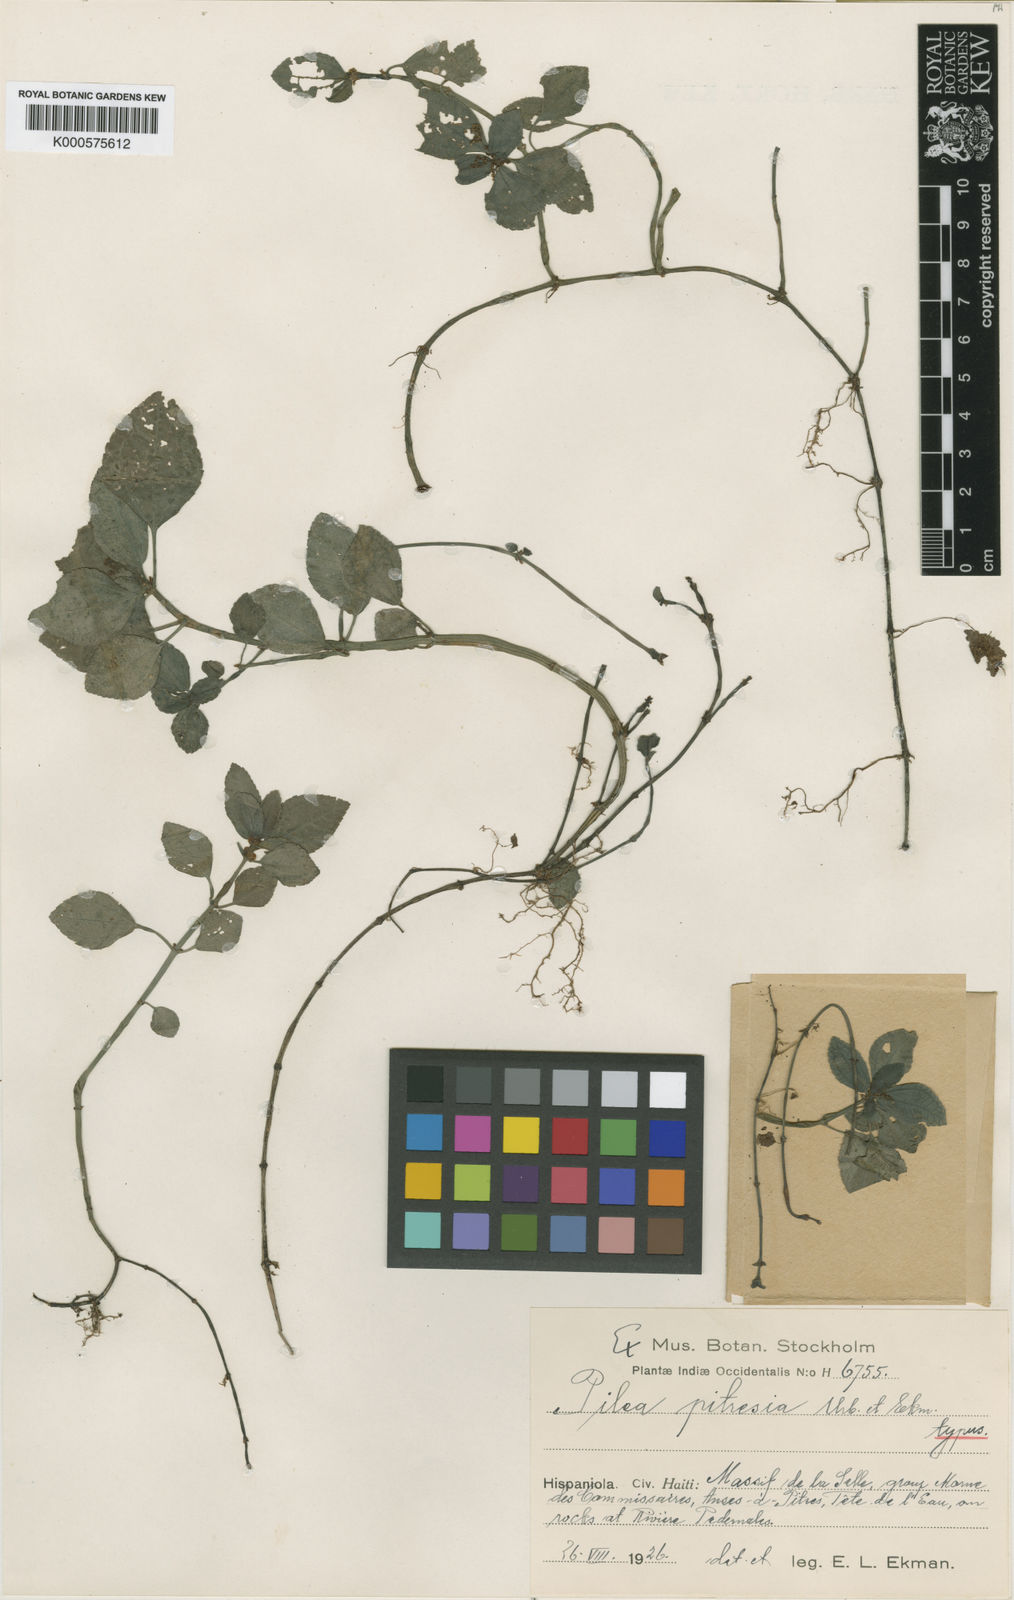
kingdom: Plantae
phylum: Tracheophyta
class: Magnoliopsida
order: Rosales
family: Urticaceae
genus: Pilea
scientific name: Pilea pitresia
